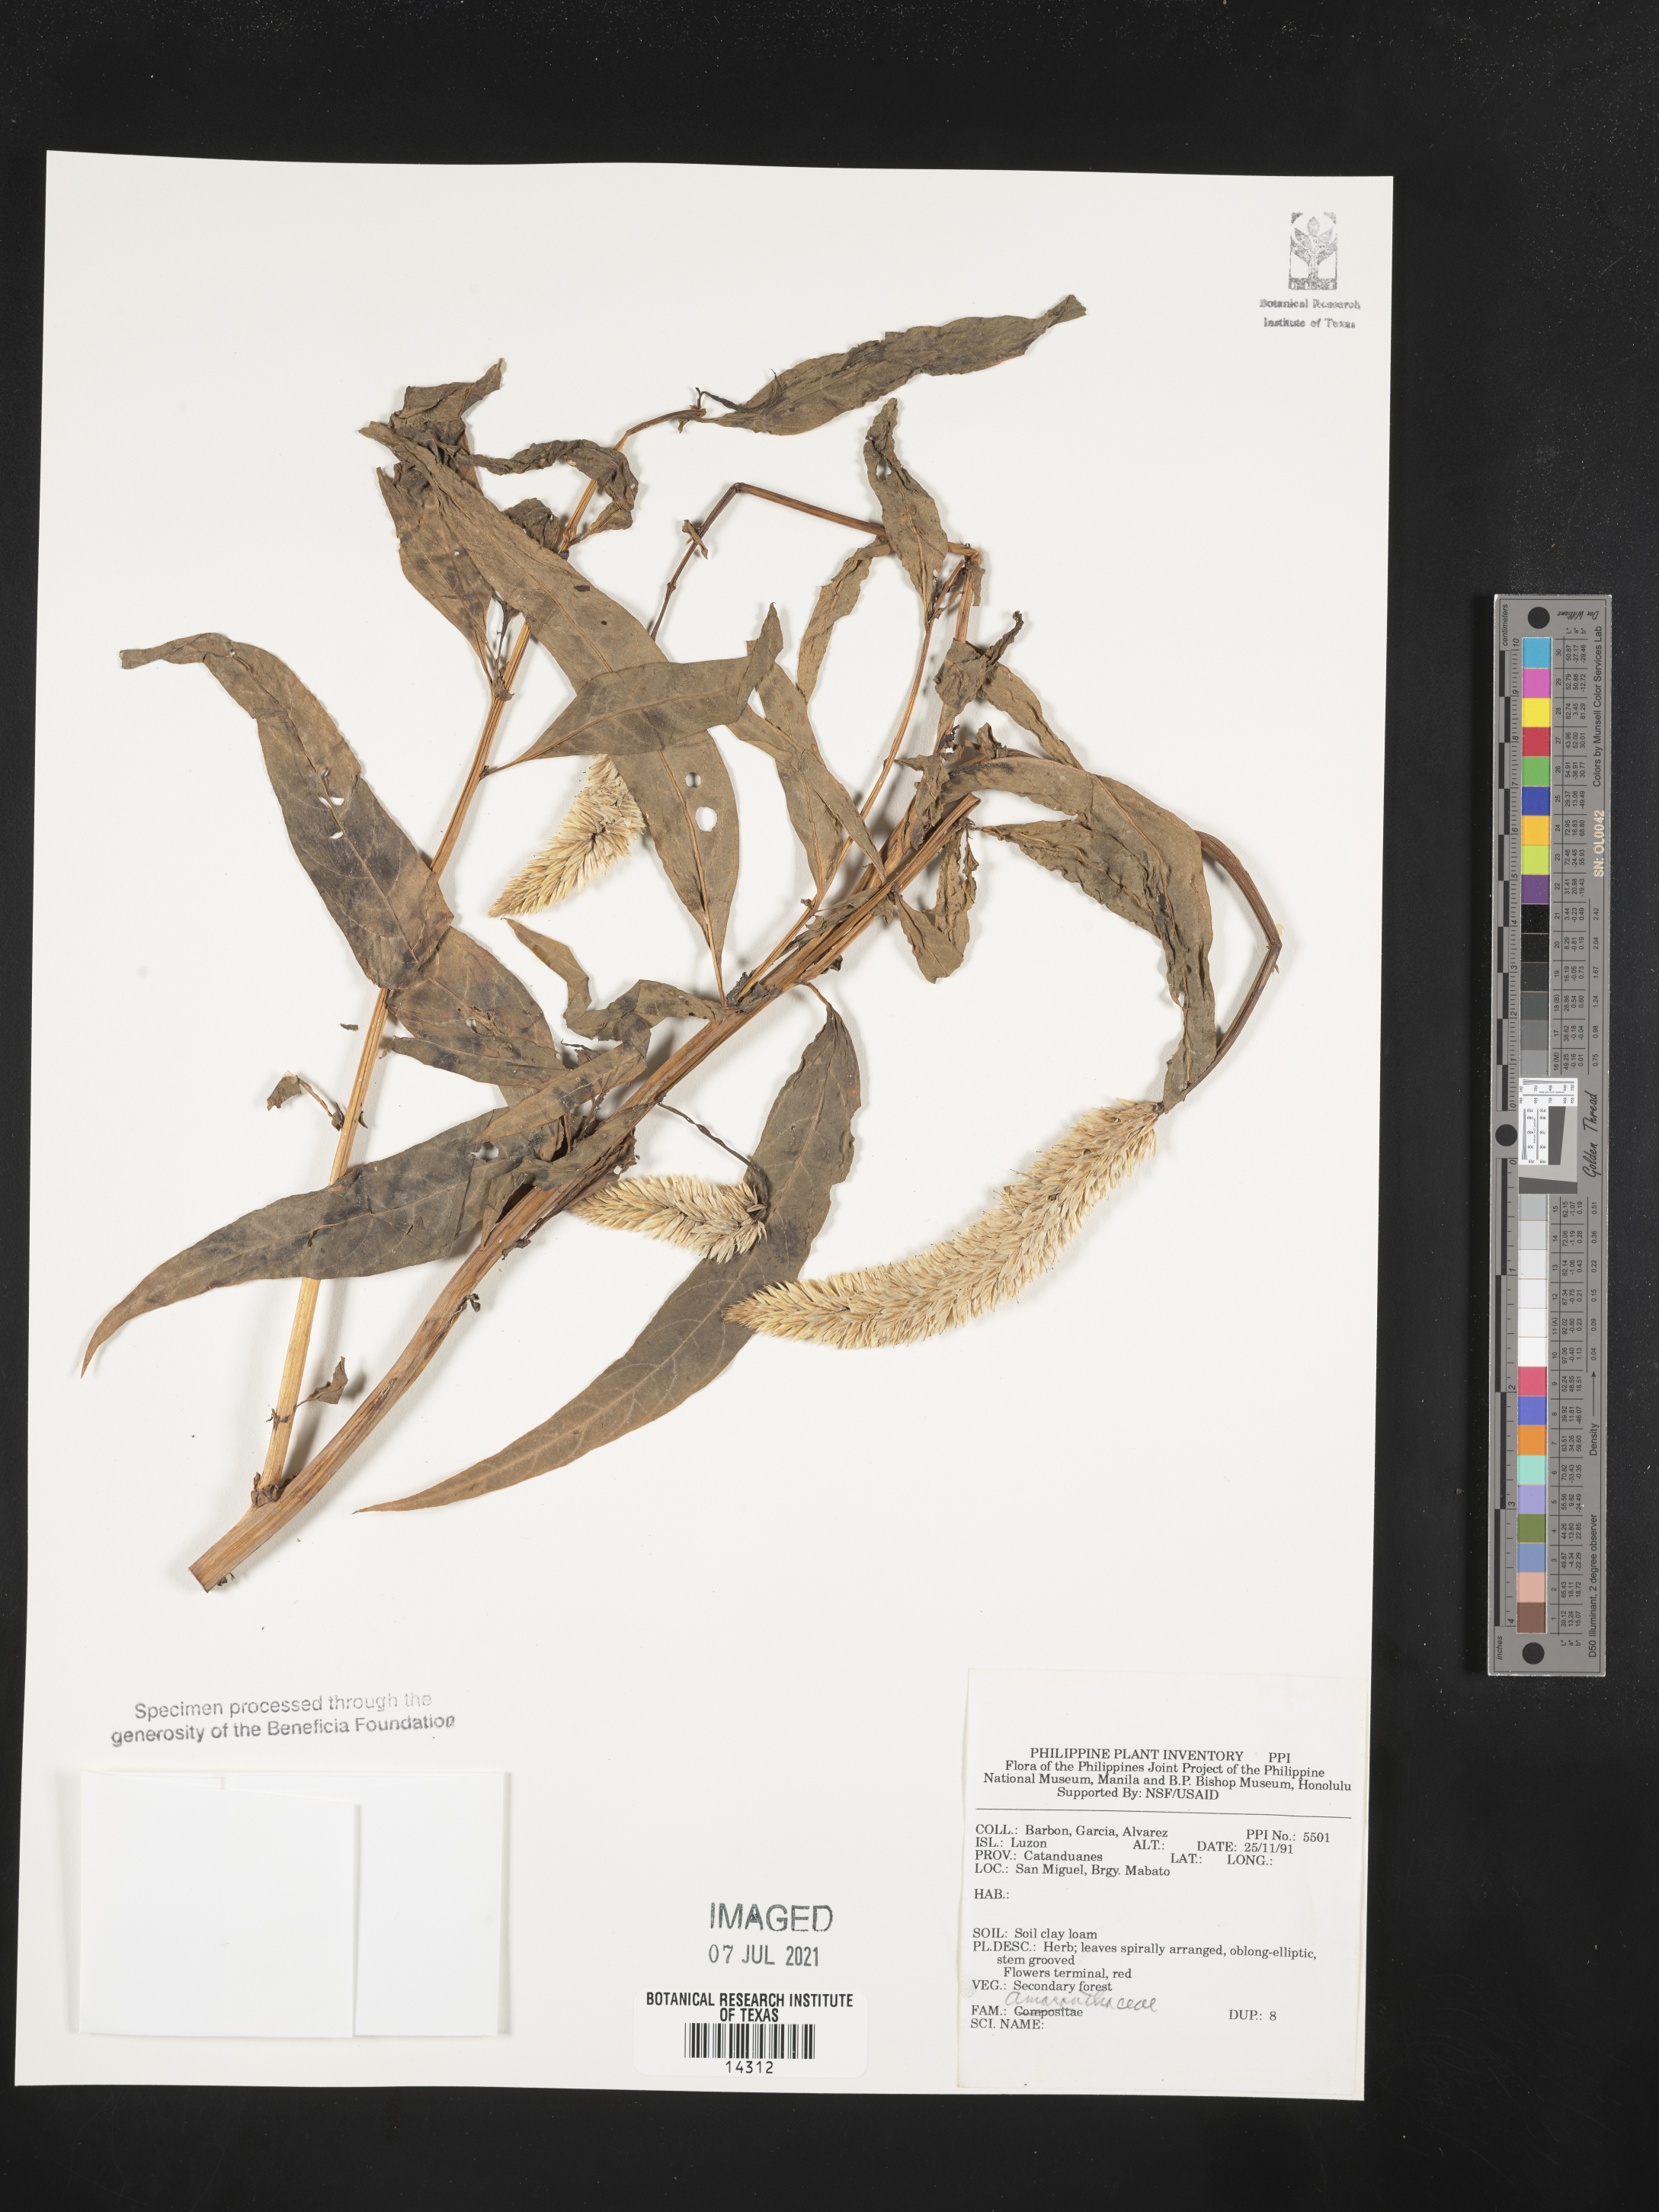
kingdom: Plantae
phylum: Tracheophyta
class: Magnoliopsida
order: Caryophyllales
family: Amaranthaceae
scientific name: Amaranthaceae
